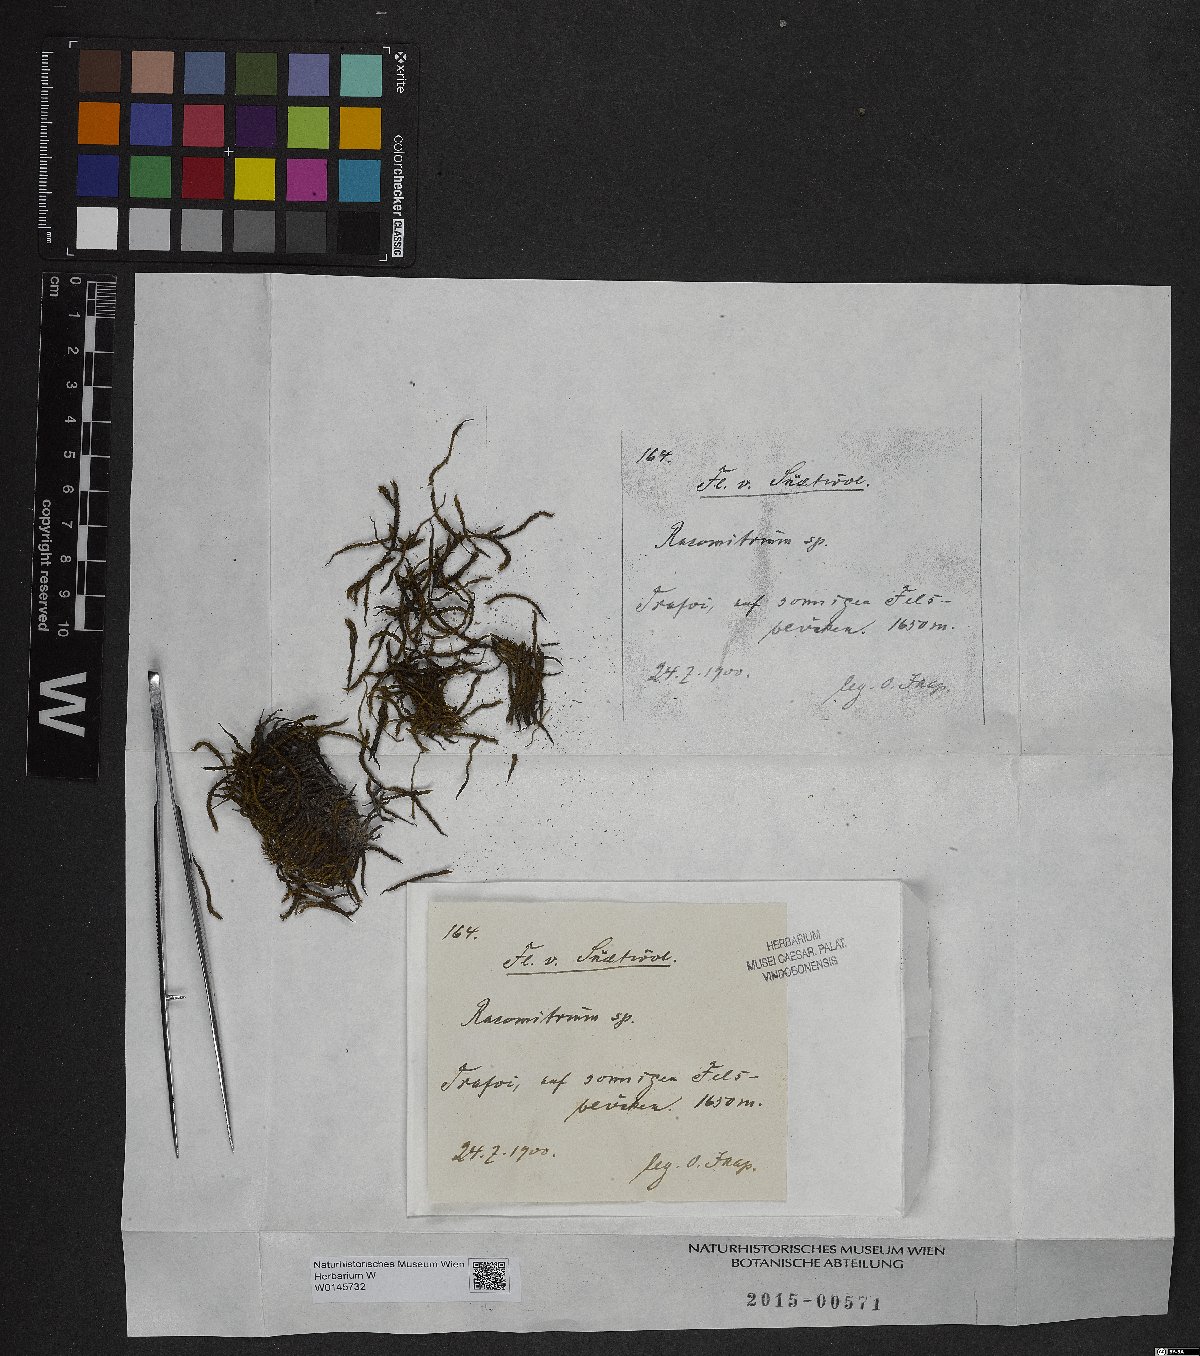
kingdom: Plantae
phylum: Bryophyta
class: Bryopsida
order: Grimmiales
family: Grimmiaceae
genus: Racomitrium
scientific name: Racomitrium
